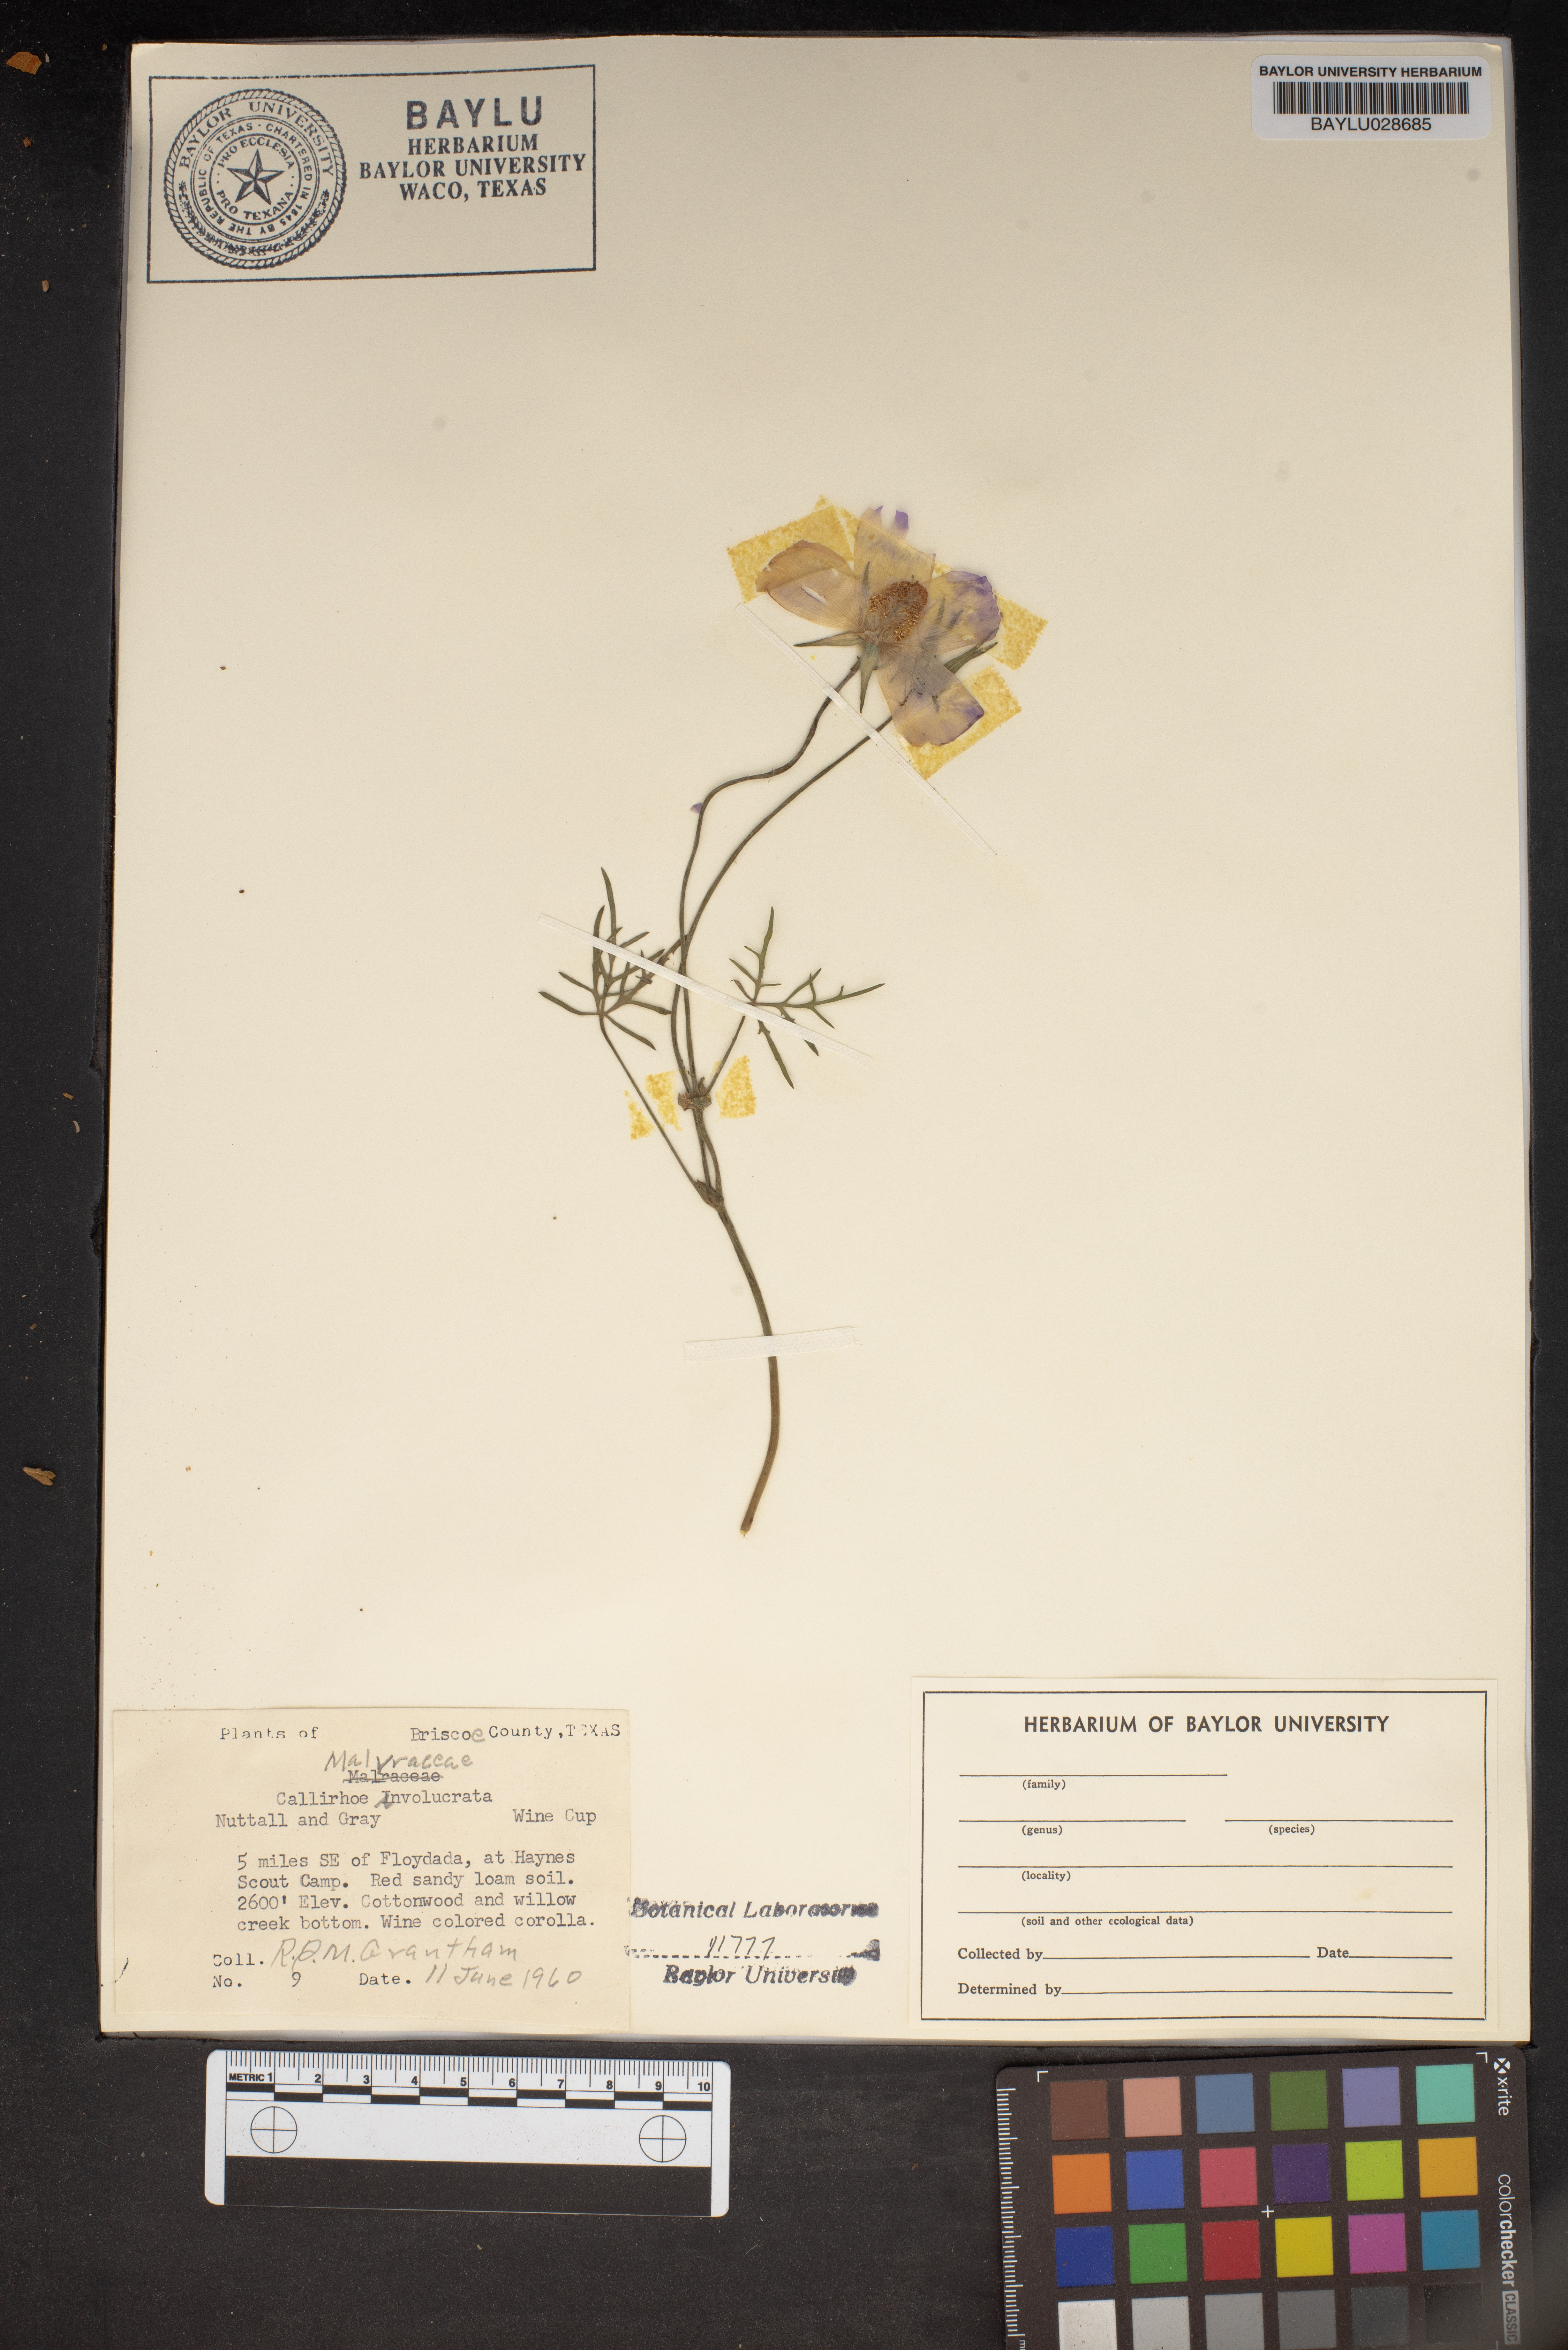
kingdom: Plantae
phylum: Tracheophyta
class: Magnoliopsida
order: Malvales
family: Malvaceae
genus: Callirhoe
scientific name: Callirhoe involucrata
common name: Purple poppy-mallow
